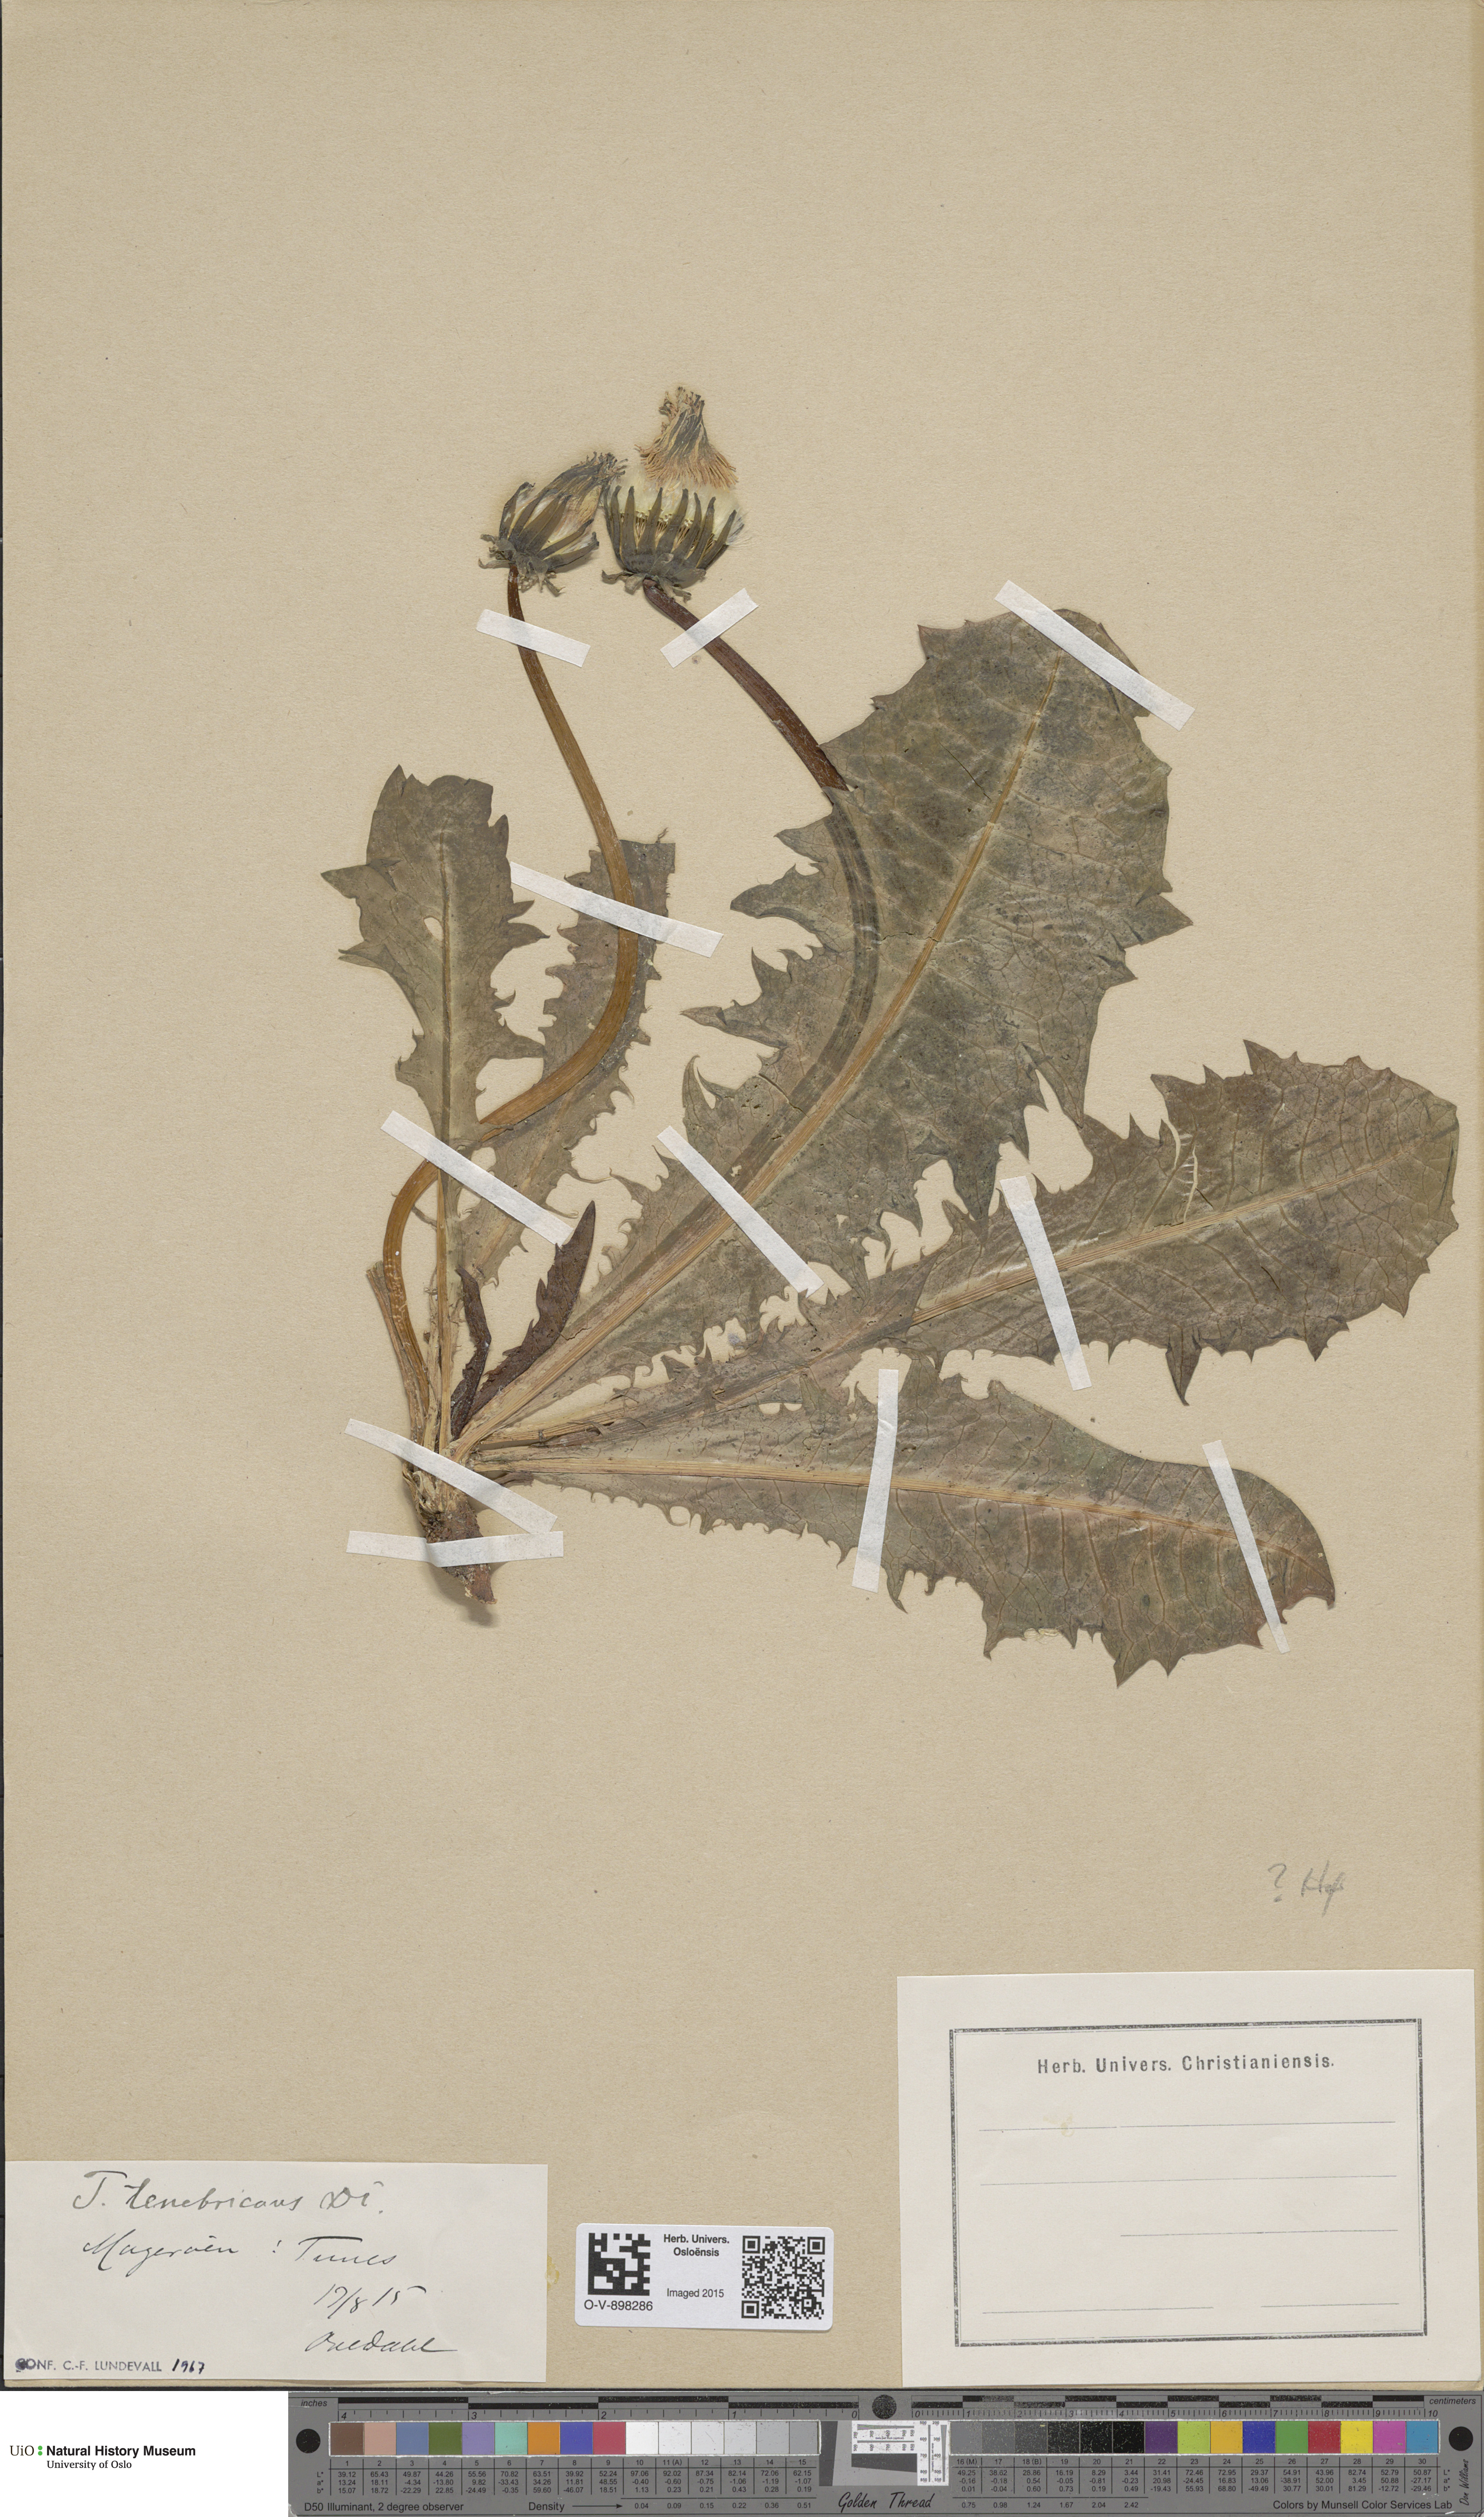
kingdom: Plantae
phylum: Tracheophyta
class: Magnoliopsida
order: Asterales
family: Asteraceae
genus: Taraxacum
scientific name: Taraxacum tenebricans
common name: Shiny-leaved dandelion
